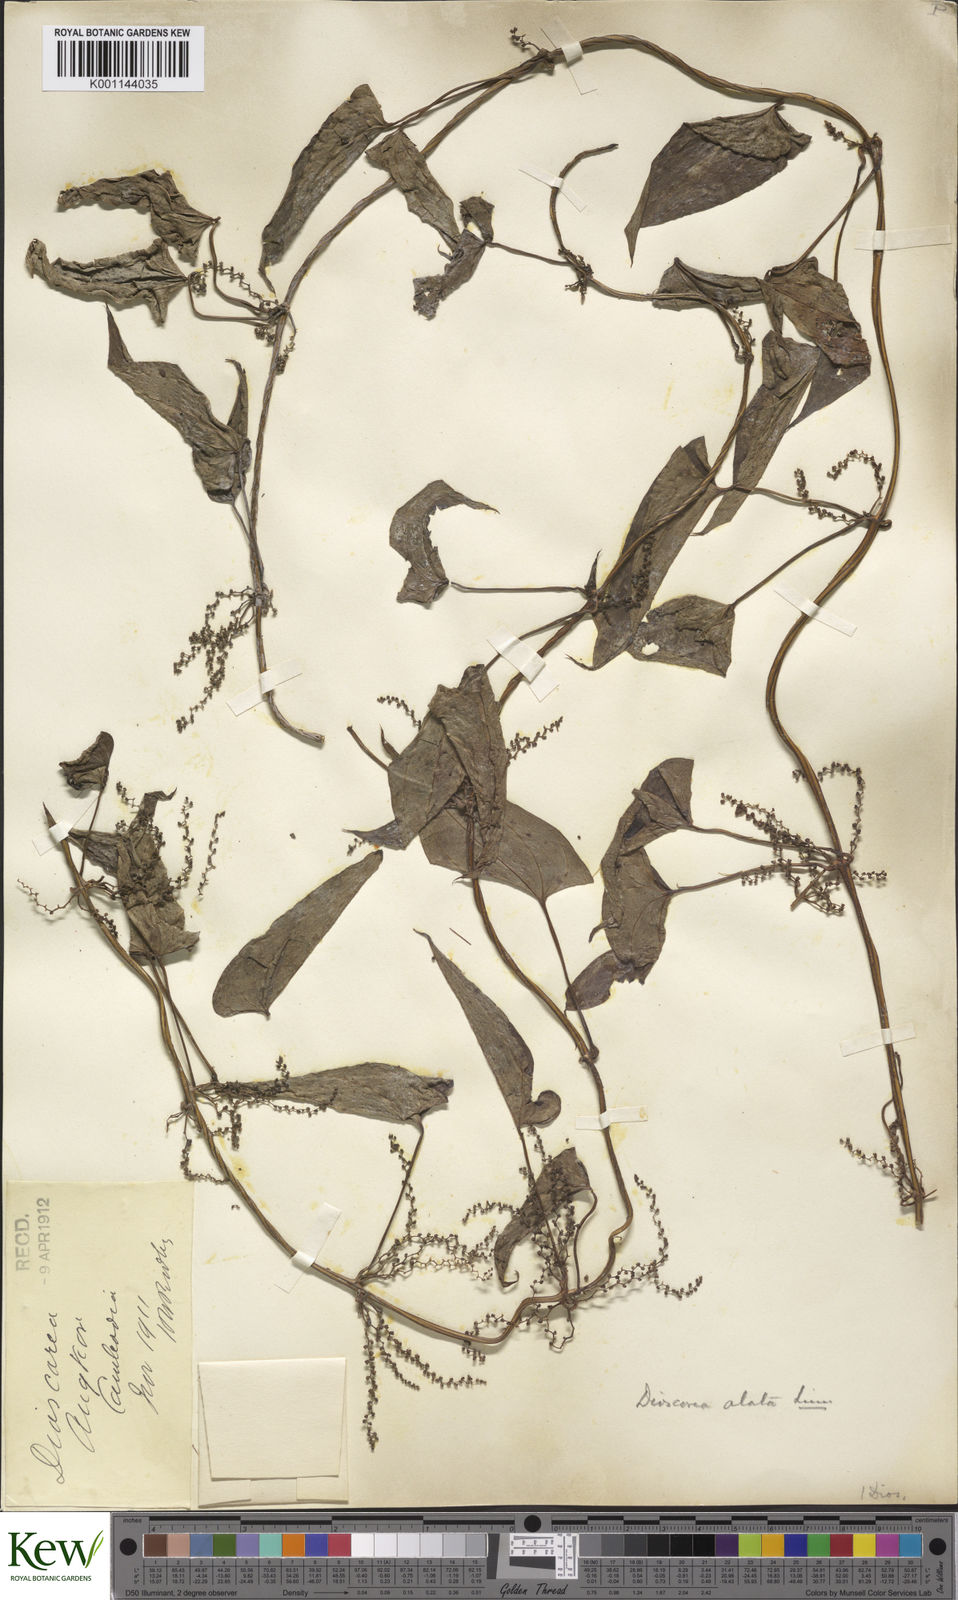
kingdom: Plantae
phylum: Tracheophyta
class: Liliopsida
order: Dioscoreales
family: Dioscoreaceae
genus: Dioscorea
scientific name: Dioscorea alata
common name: Water yam
